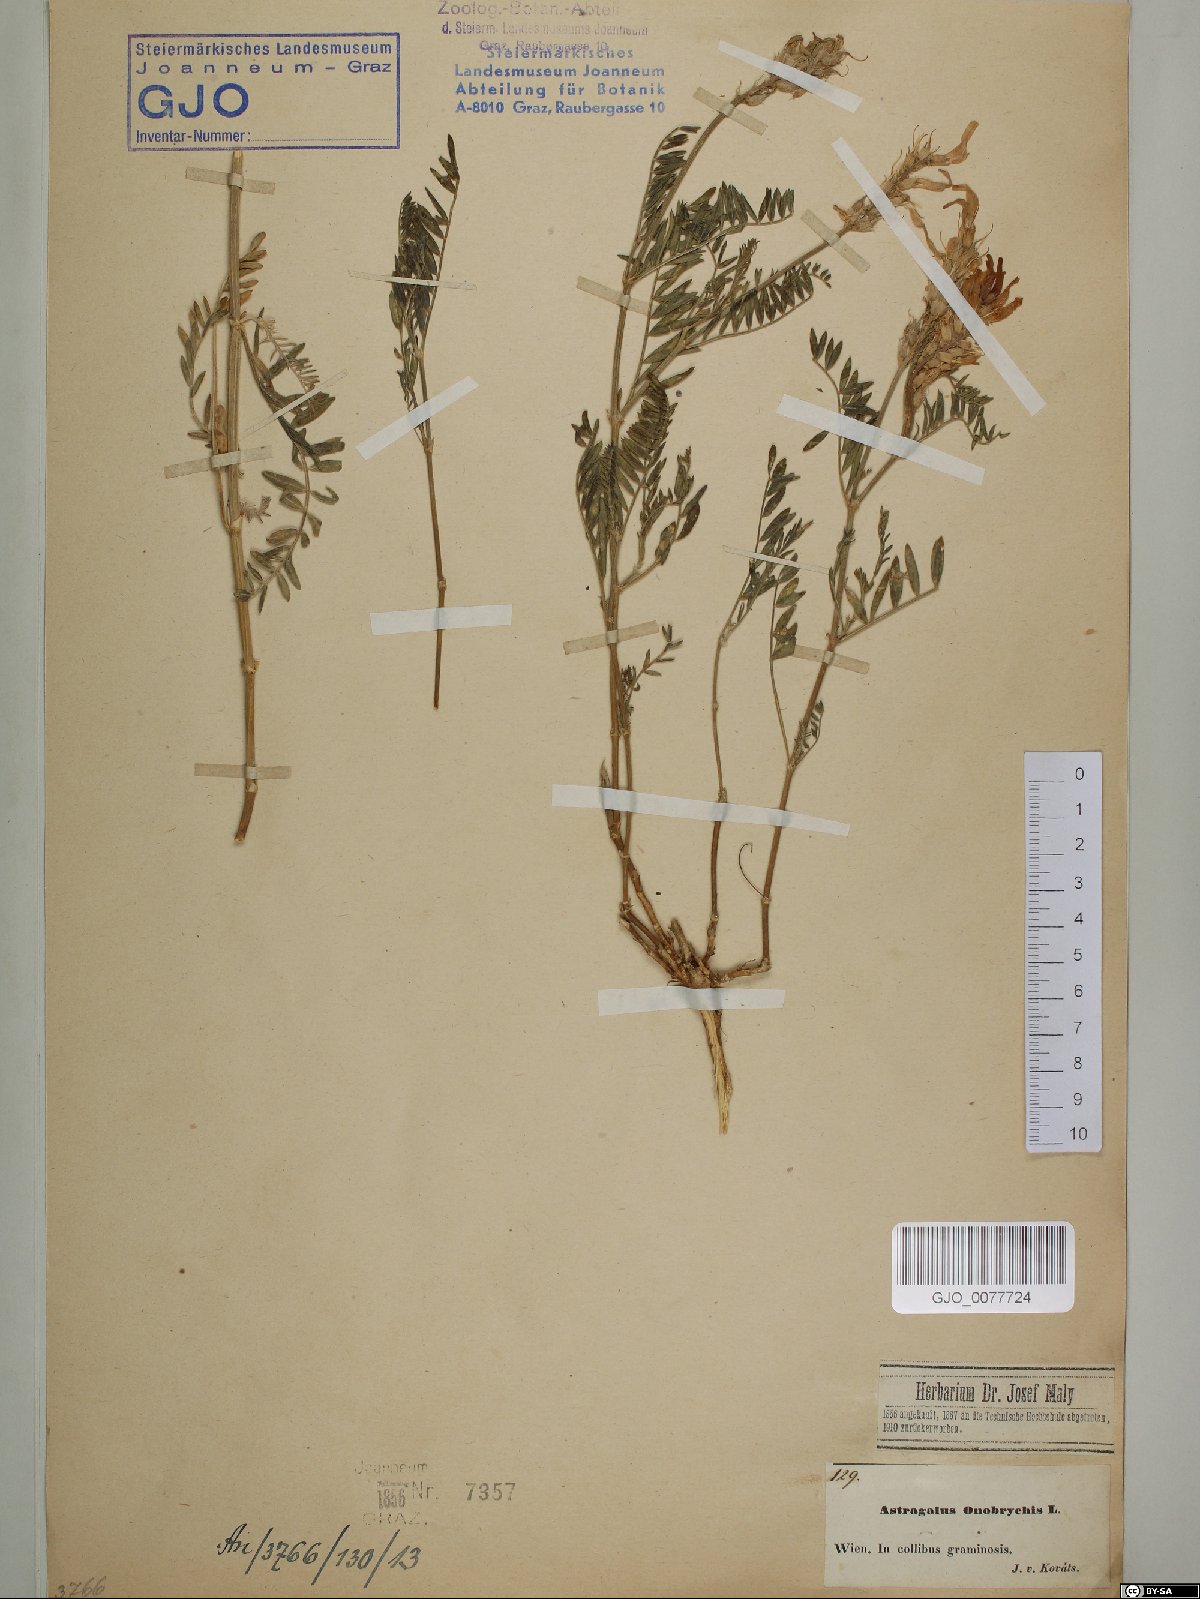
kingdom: Plantae
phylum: Tracheophyta
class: Magnoliopsida
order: Fabales
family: Fabaceae
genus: Astragalus
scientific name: Astragalus onobrychis
